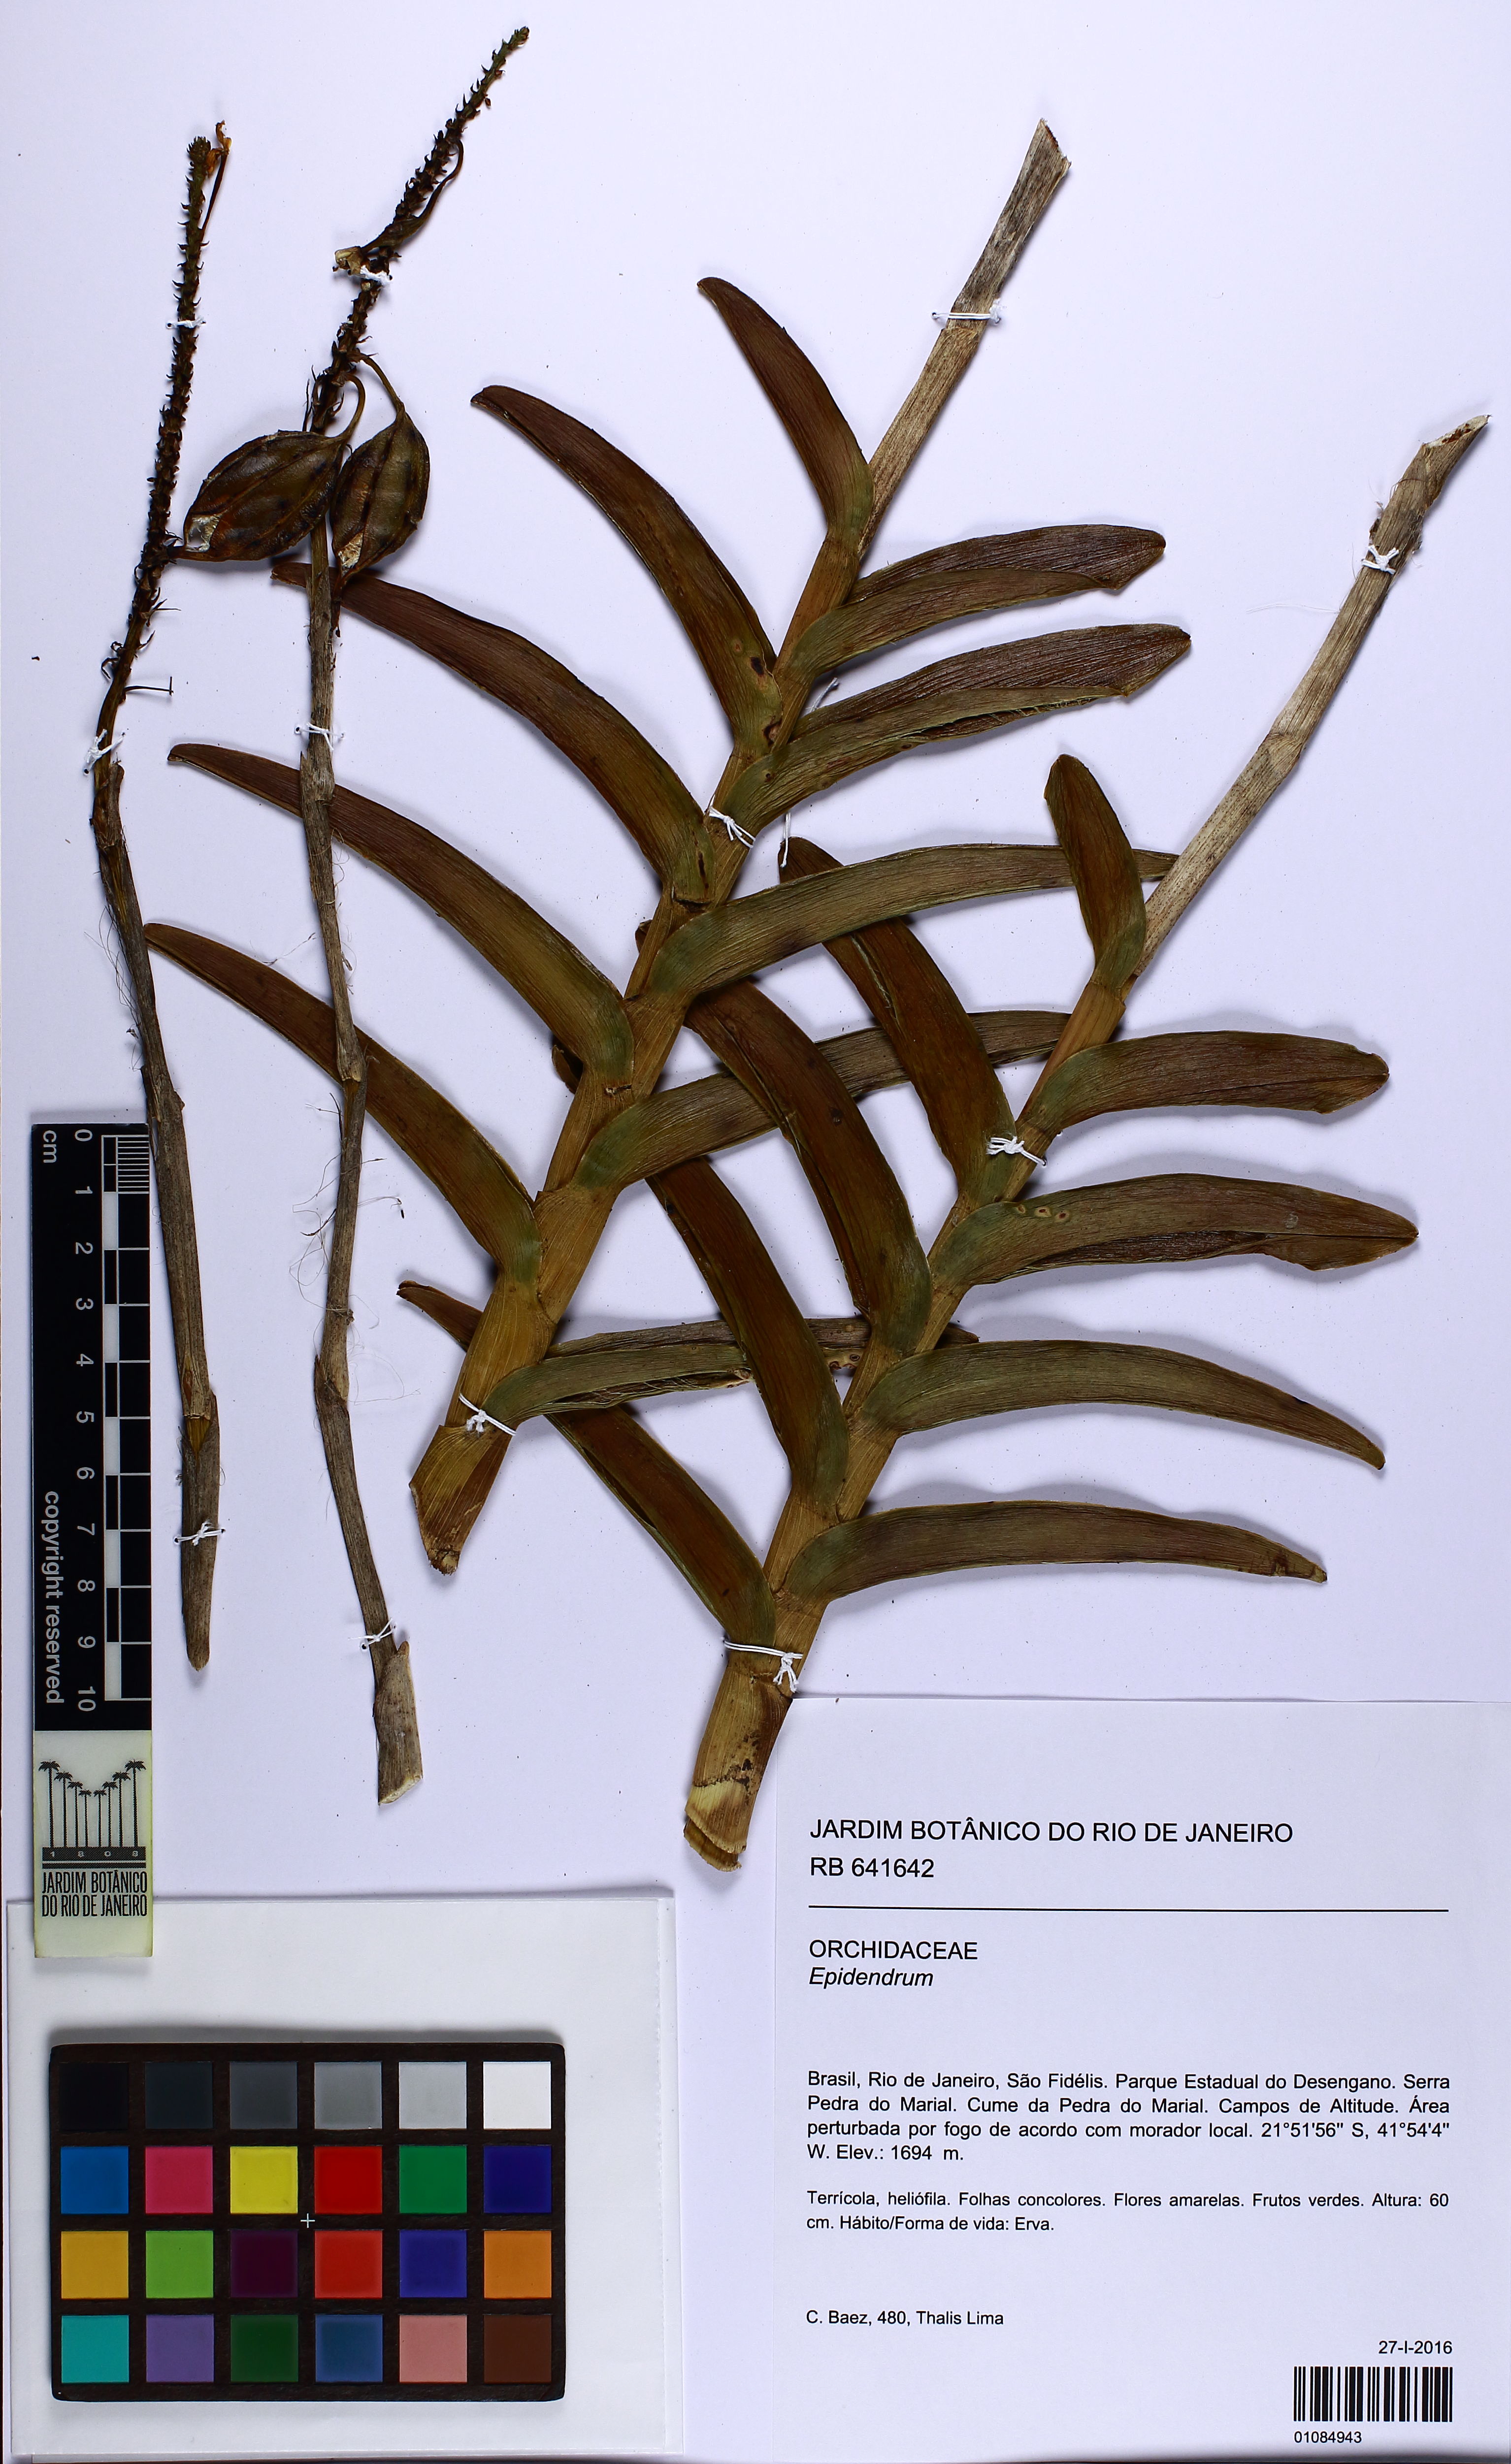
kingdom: Plantae
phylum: Tracheophyta
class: Liliopsida
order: Asparagales
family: Orchidaceae
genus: Epidendrum
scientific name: Epidendrum
